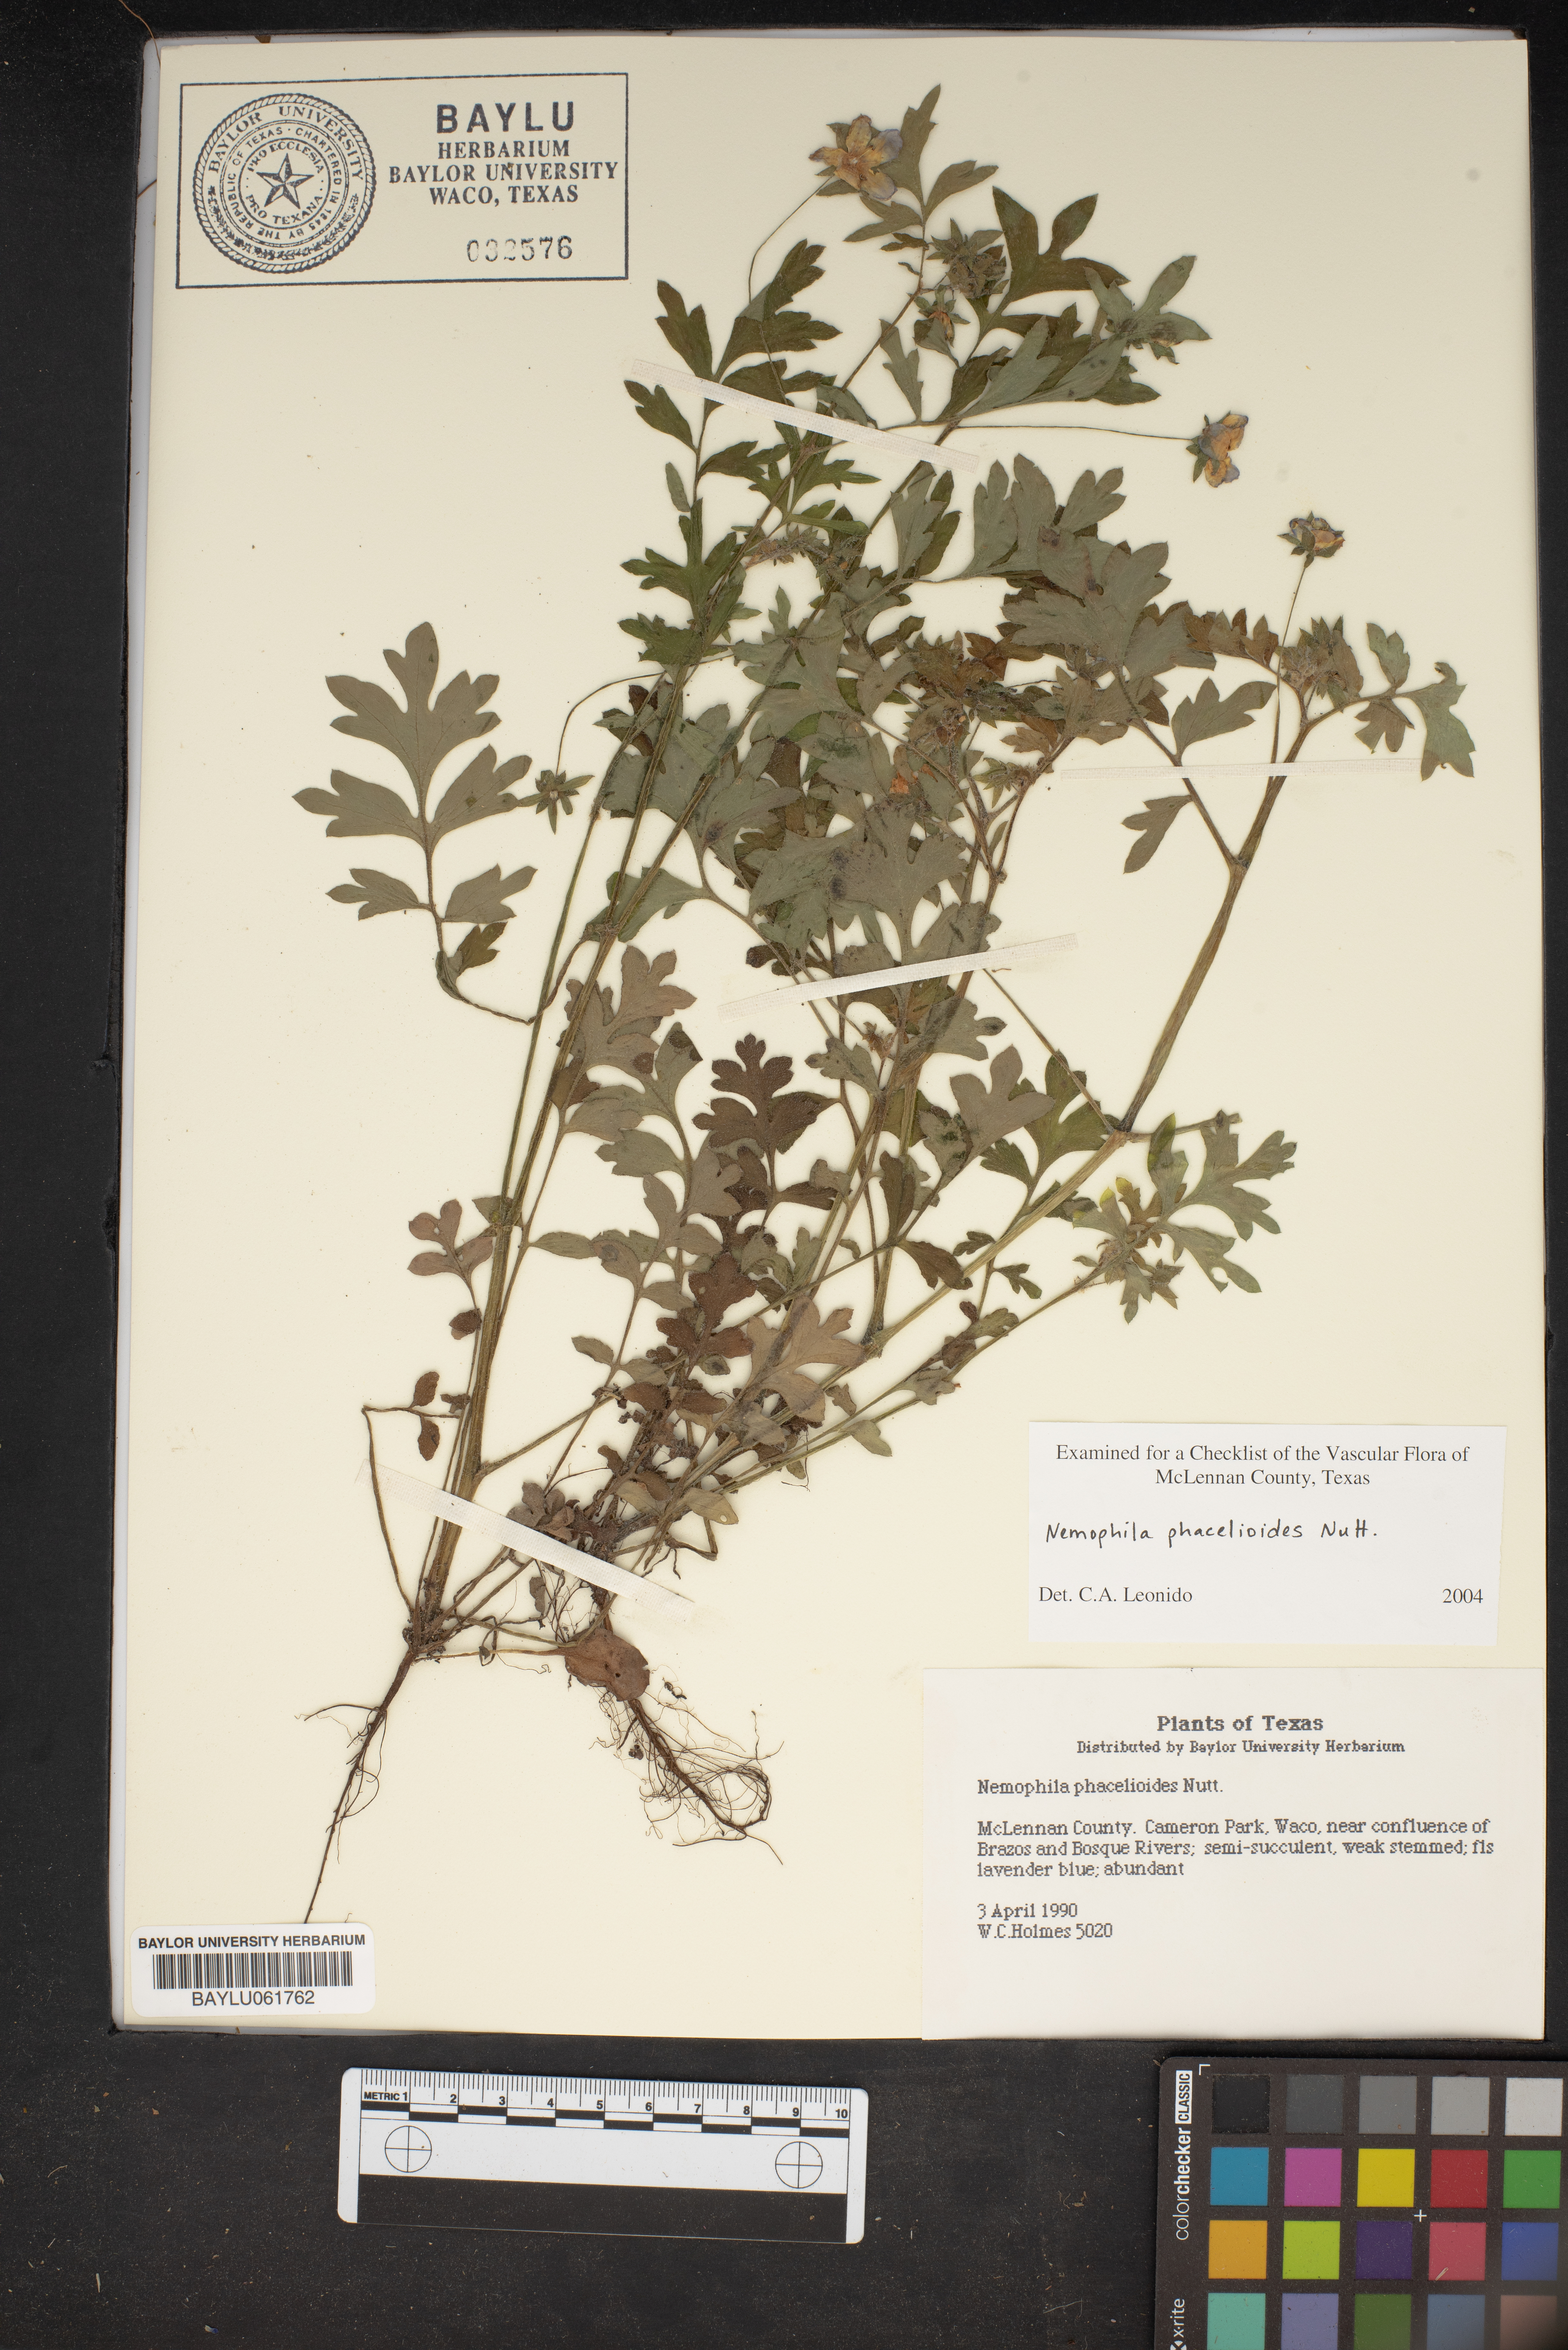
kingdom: Plantae
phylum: Tracheophyta
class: Magnoliopsida
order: Boraginales
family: Hydrophyllaceae
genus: Nemophila
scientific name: Nemophila phacelioides
